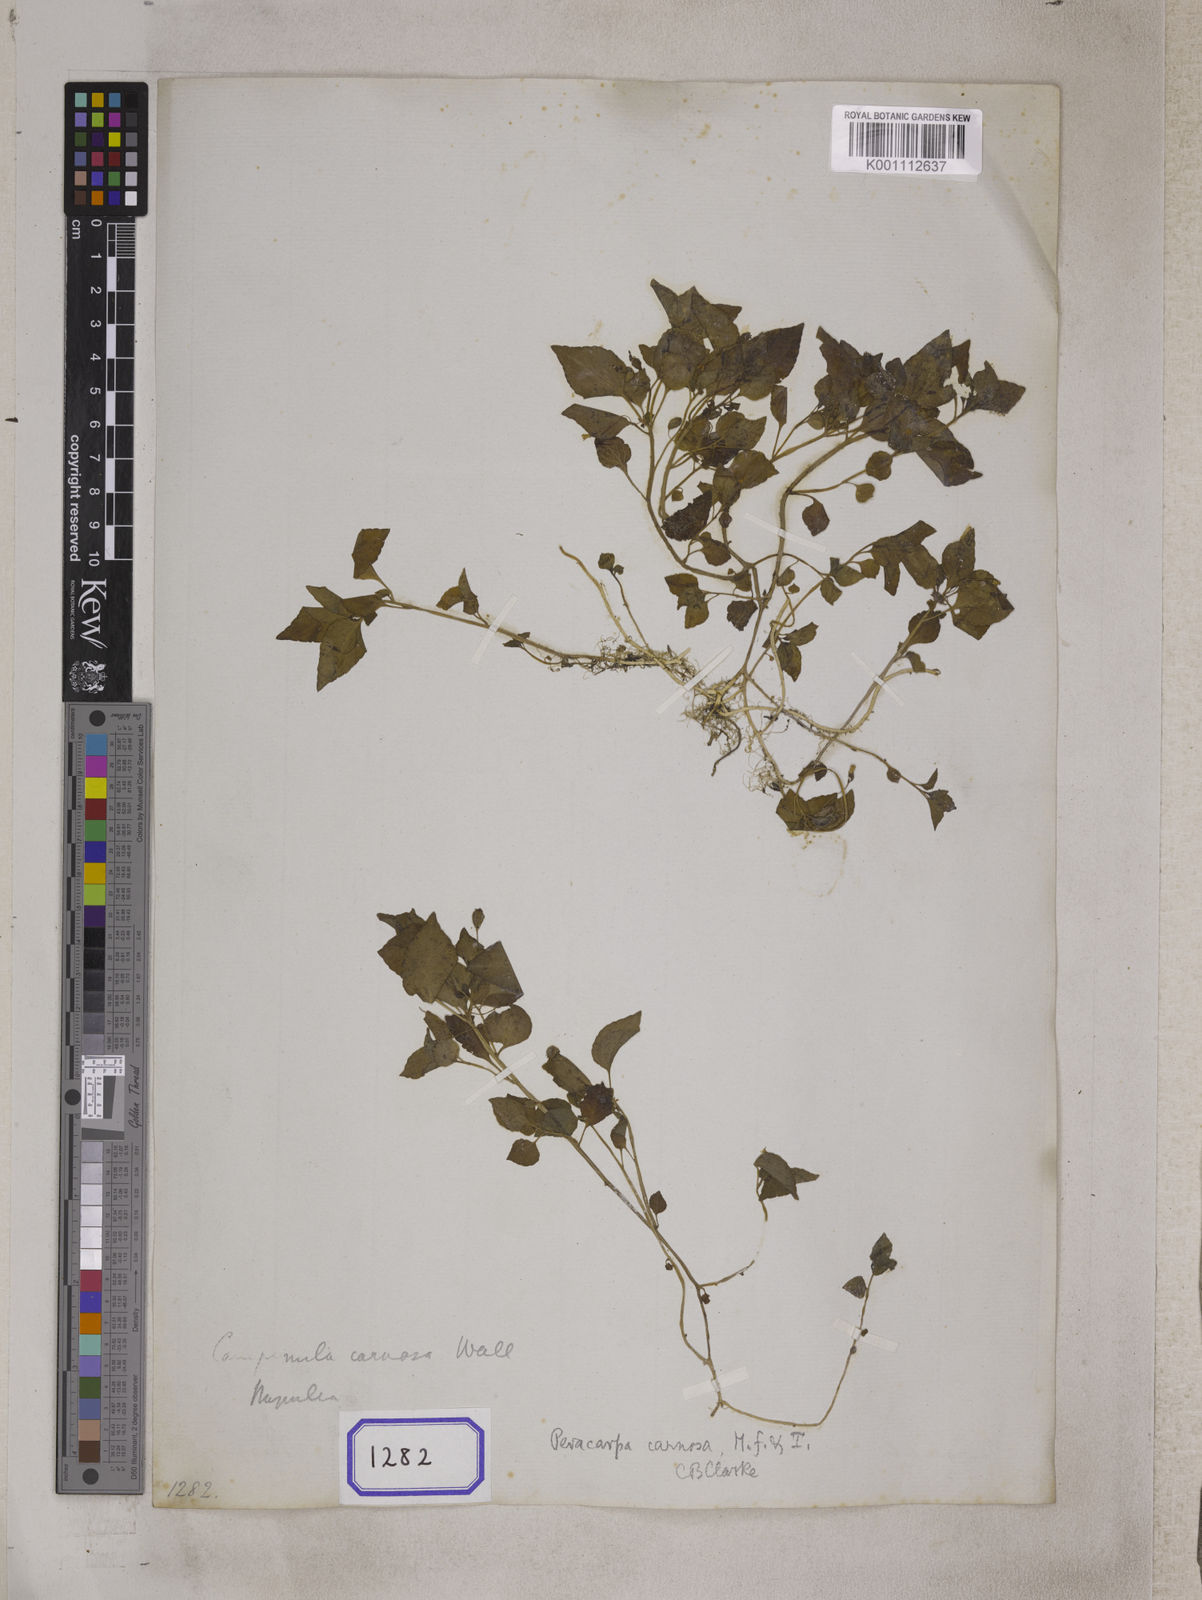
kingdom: Plantae
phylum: Tracheophyta
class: Magnoliopsida
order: Asterales
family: Campanulaceae
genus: Peracarpa
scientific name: Peracarpa carnosa
